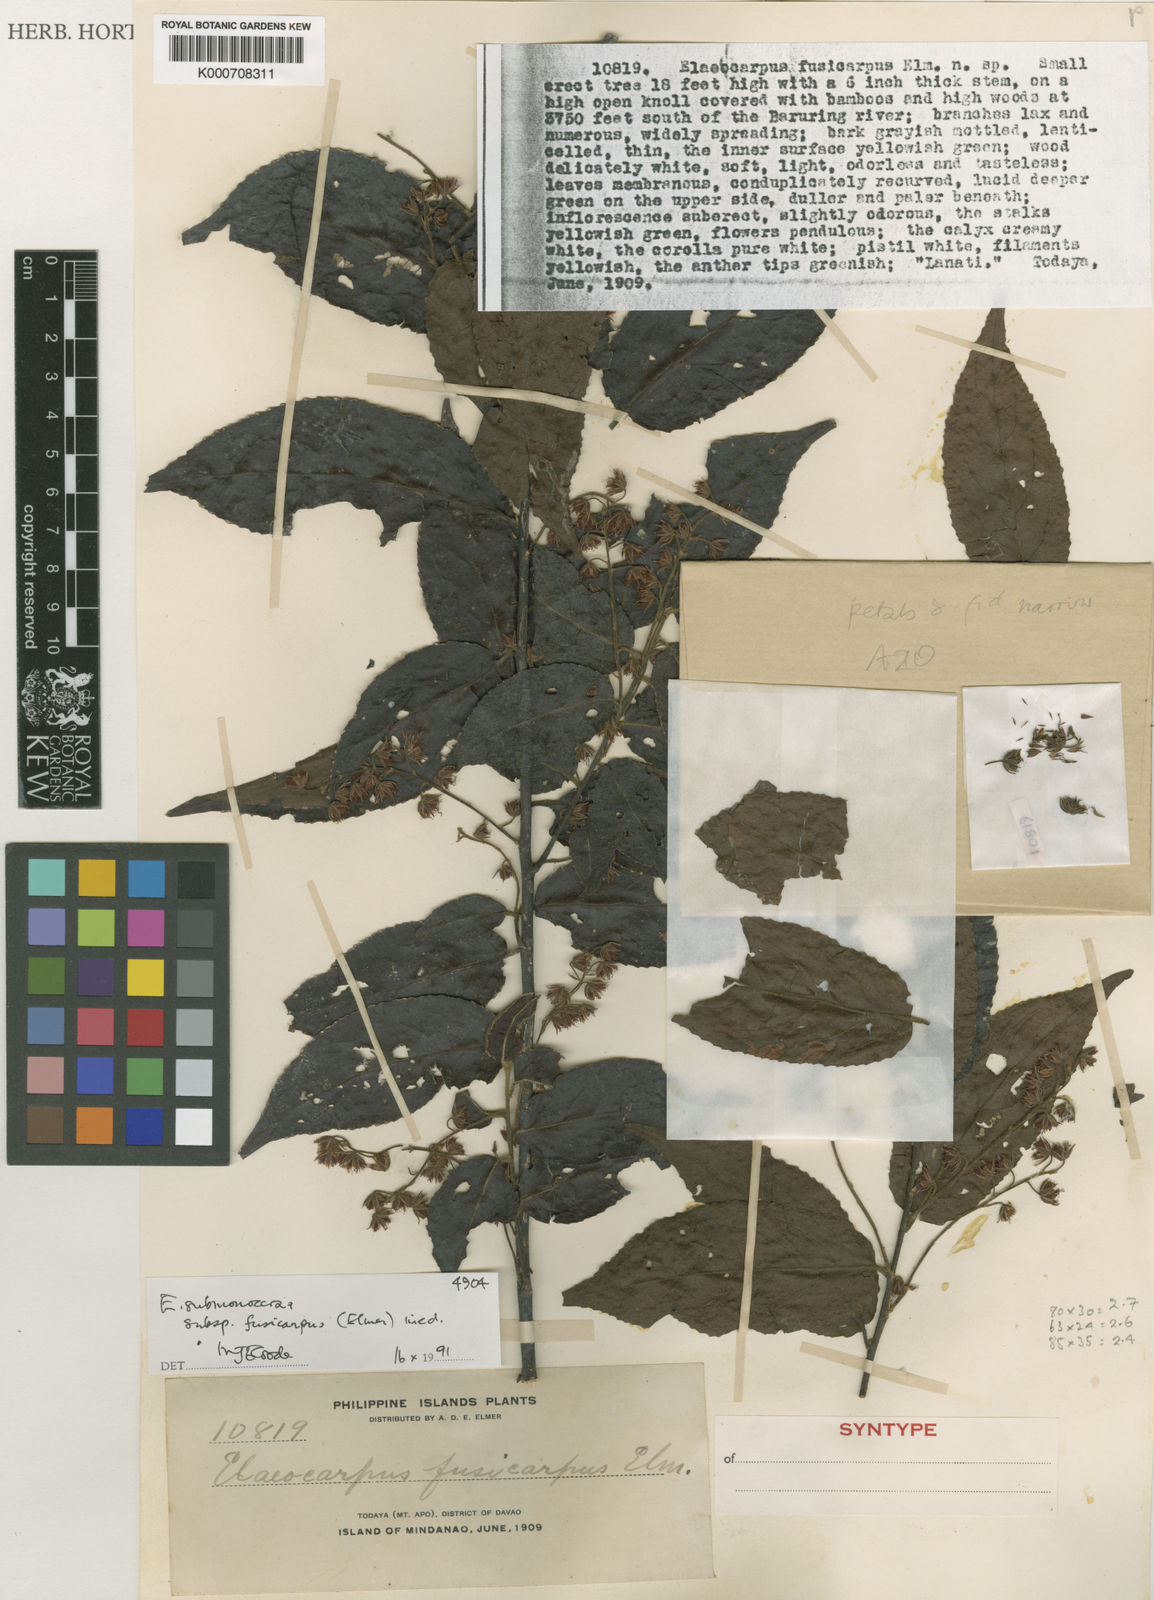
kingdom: Plantae
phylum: Tracheophyta
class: Magnoliopsida
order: Oxalidales
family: Elaeocarpaceae
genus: Elaeocarpus
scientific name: Elaeocarpus submonoceras
